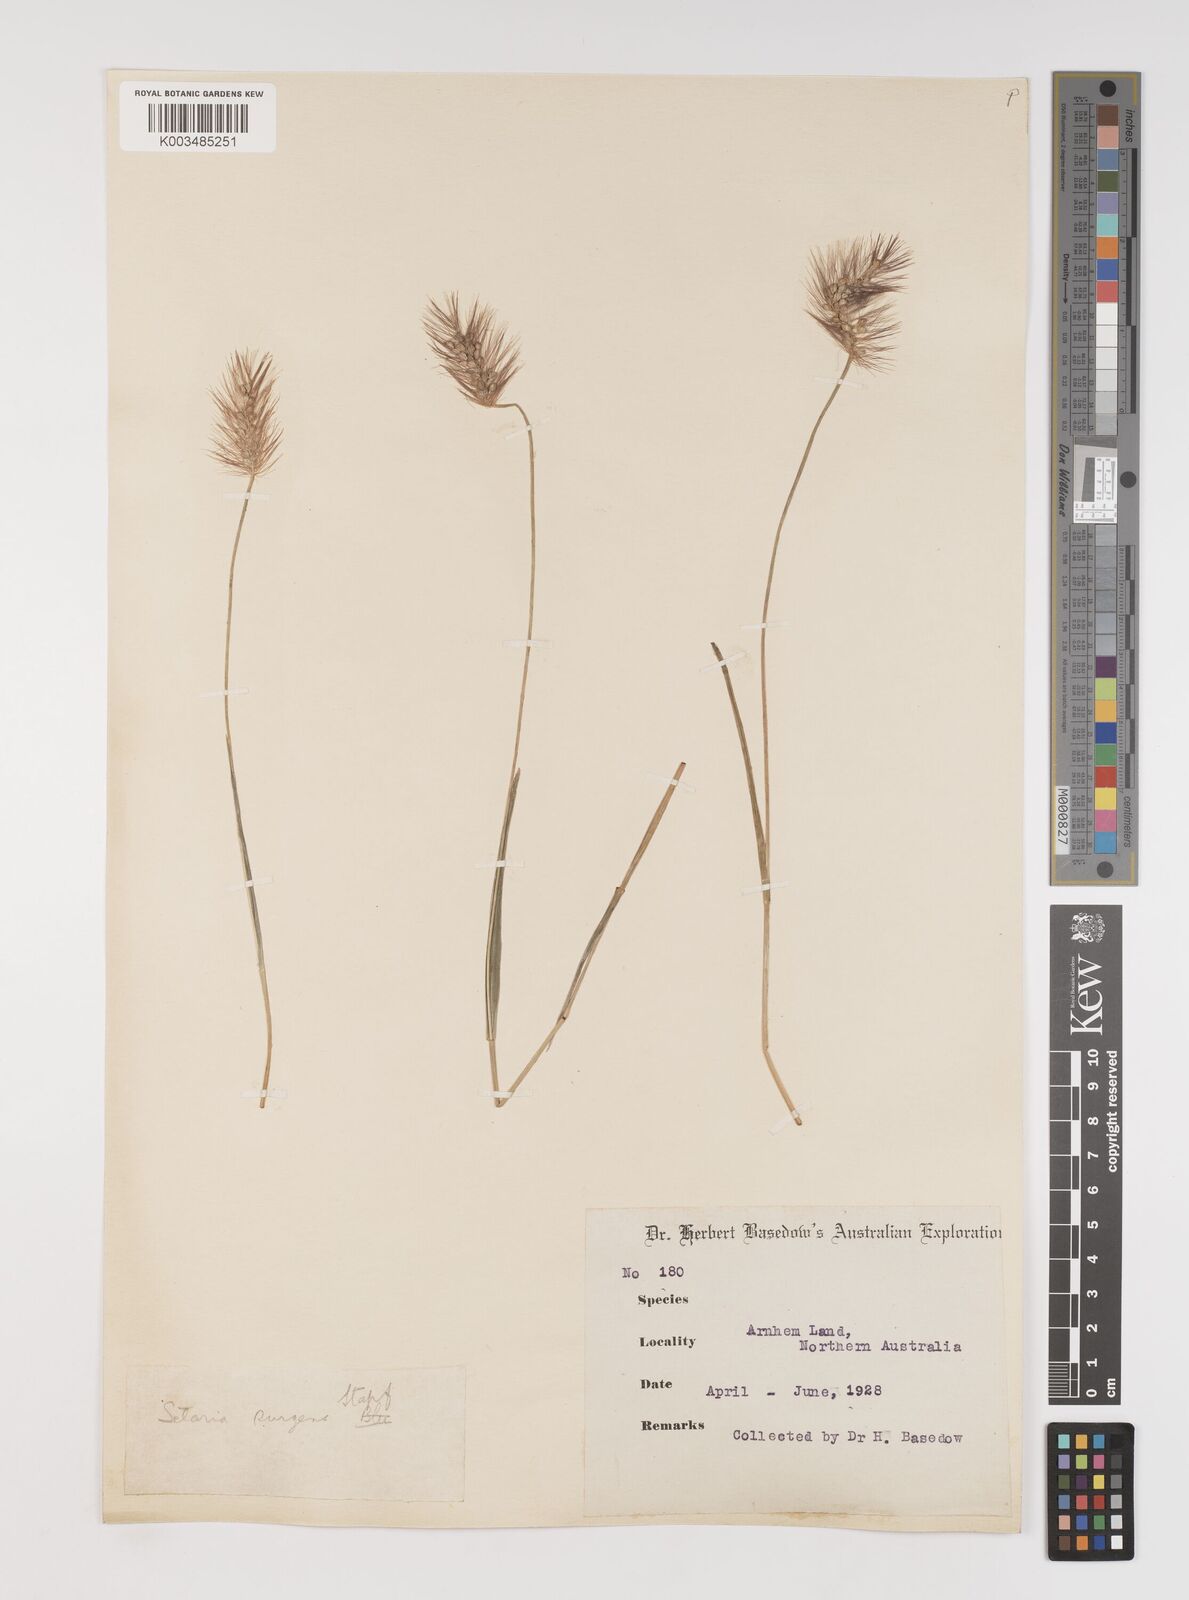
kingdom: Plantae
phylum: Tracheophyta
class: Liliopsida
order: Poales
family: Poaceae
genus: Setaria
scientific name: Setaria apiculata
